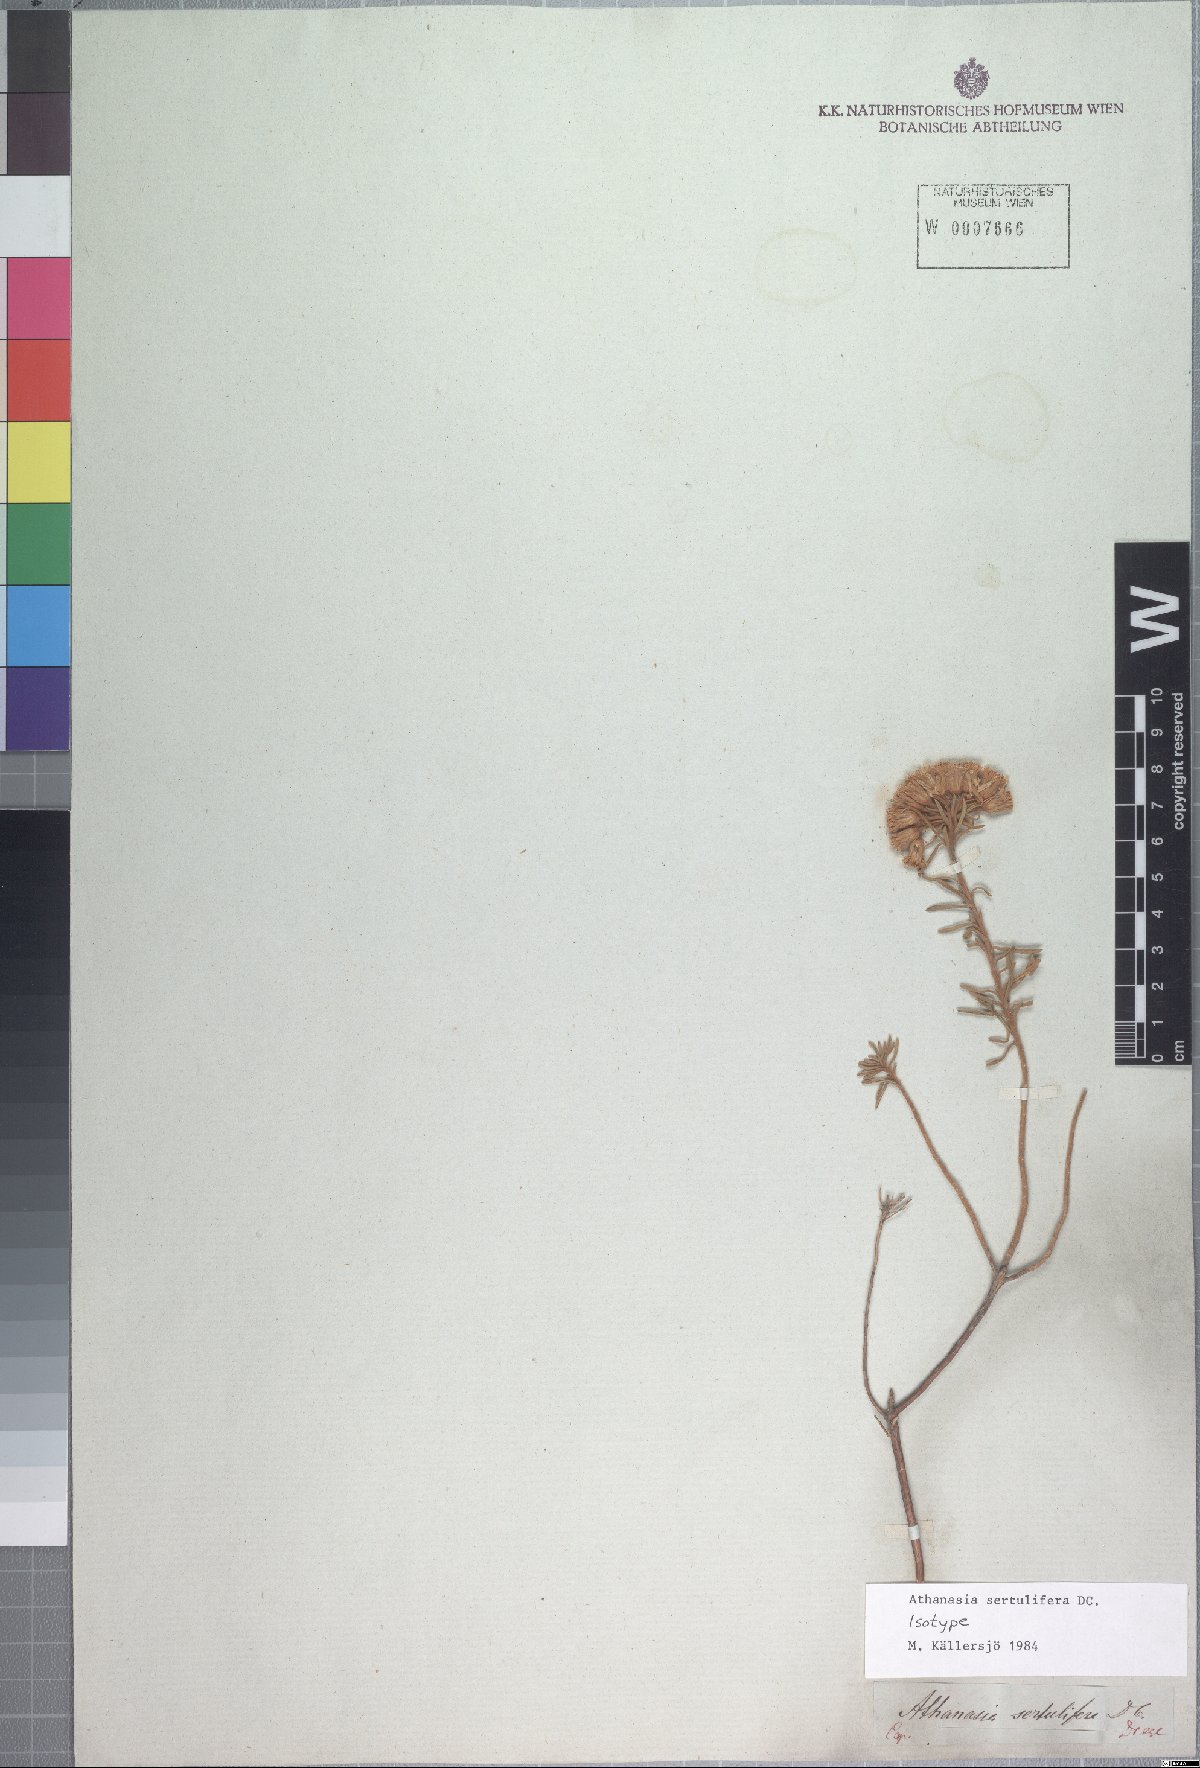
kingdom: Plantae
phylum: Tracheophyta
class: Magnoliopsida
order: Asterales
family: Asteraceae
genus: Athanasia
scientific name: Athanasia sertulifera
